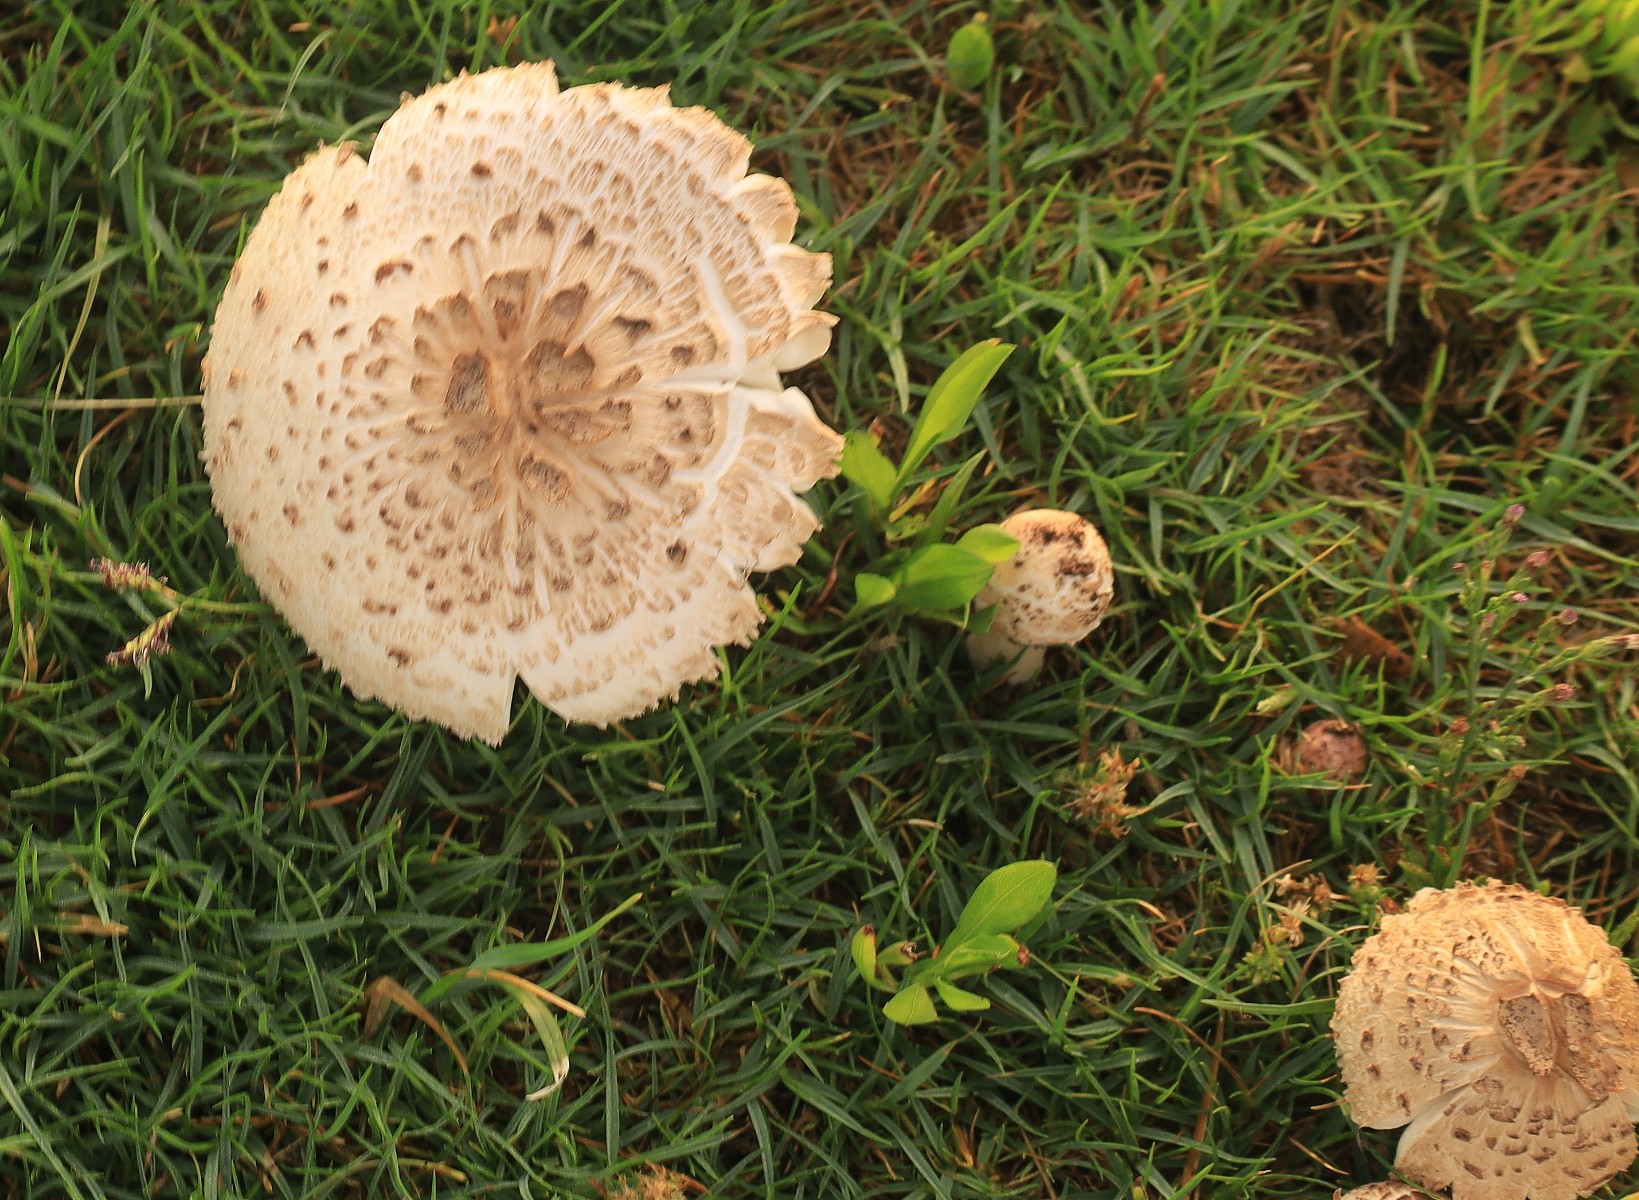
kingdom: Fungi
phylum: Basidiomycota
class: Agaricomycetes
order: Agaricales
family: Agaricaceae
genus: Agaricus
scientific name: Agaricus
